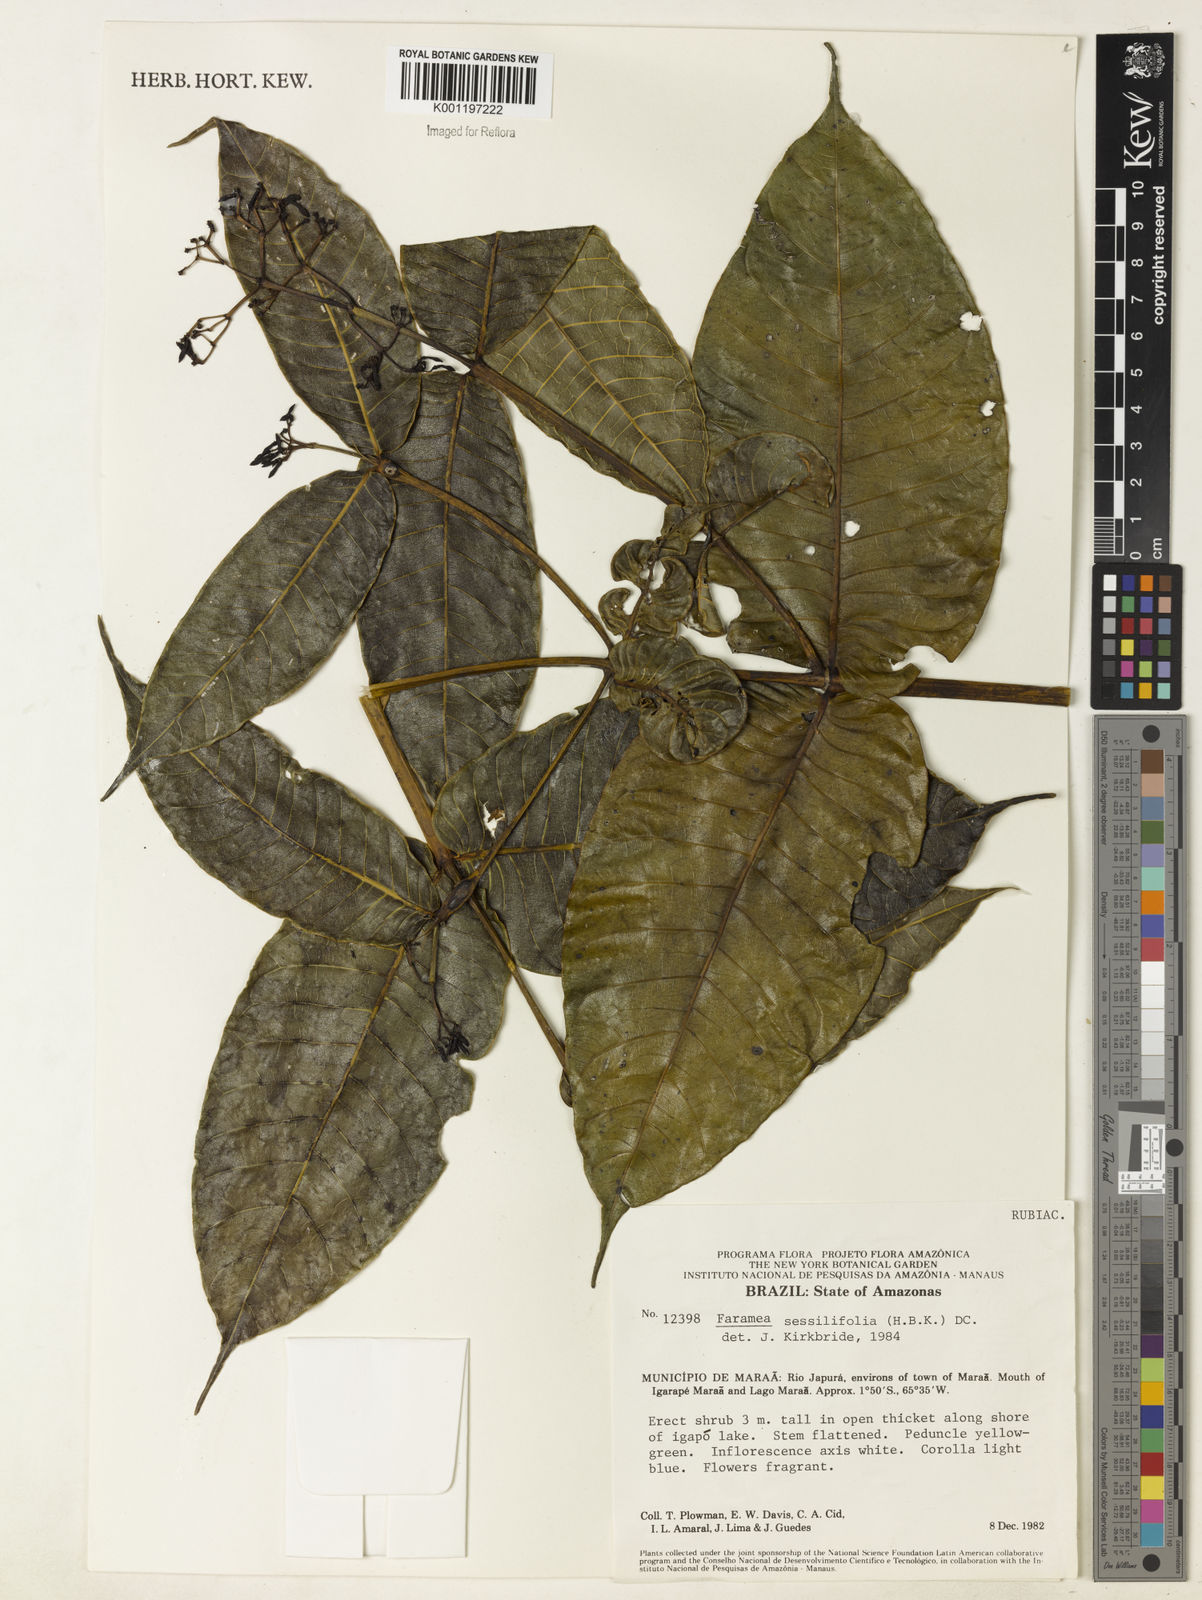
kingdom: Plantae
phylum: Tracheophyta
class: Magnoliopsida
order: Gentianales
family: Rubiaceae
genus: Faramea
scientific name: Faramea sessilifolia
